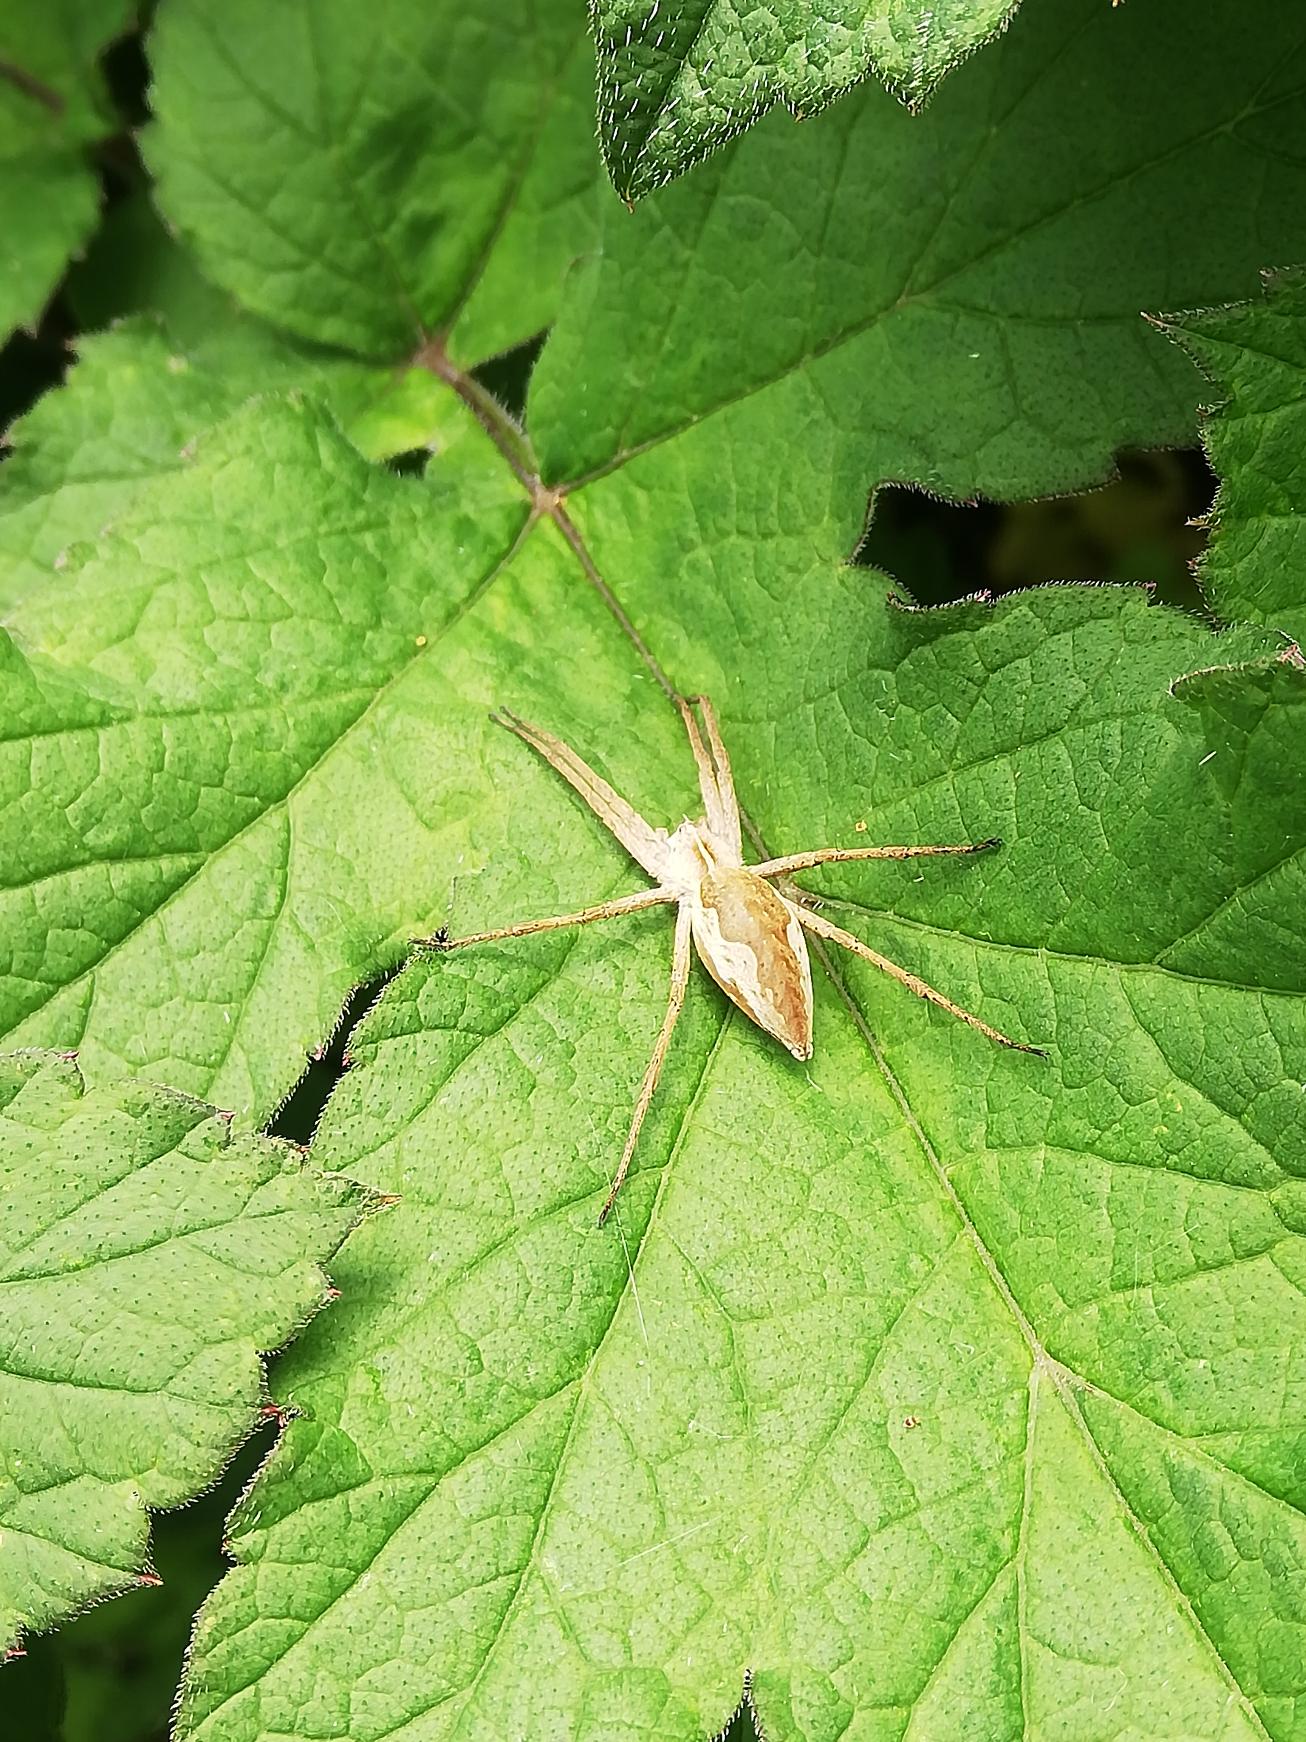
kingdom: Animalia
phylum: Arthropoda
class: Arachnida
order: Araneae
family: Pisauridae
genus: Pisaura
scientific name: Pisaura mirabilis
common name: Almindelig rovedderkop
